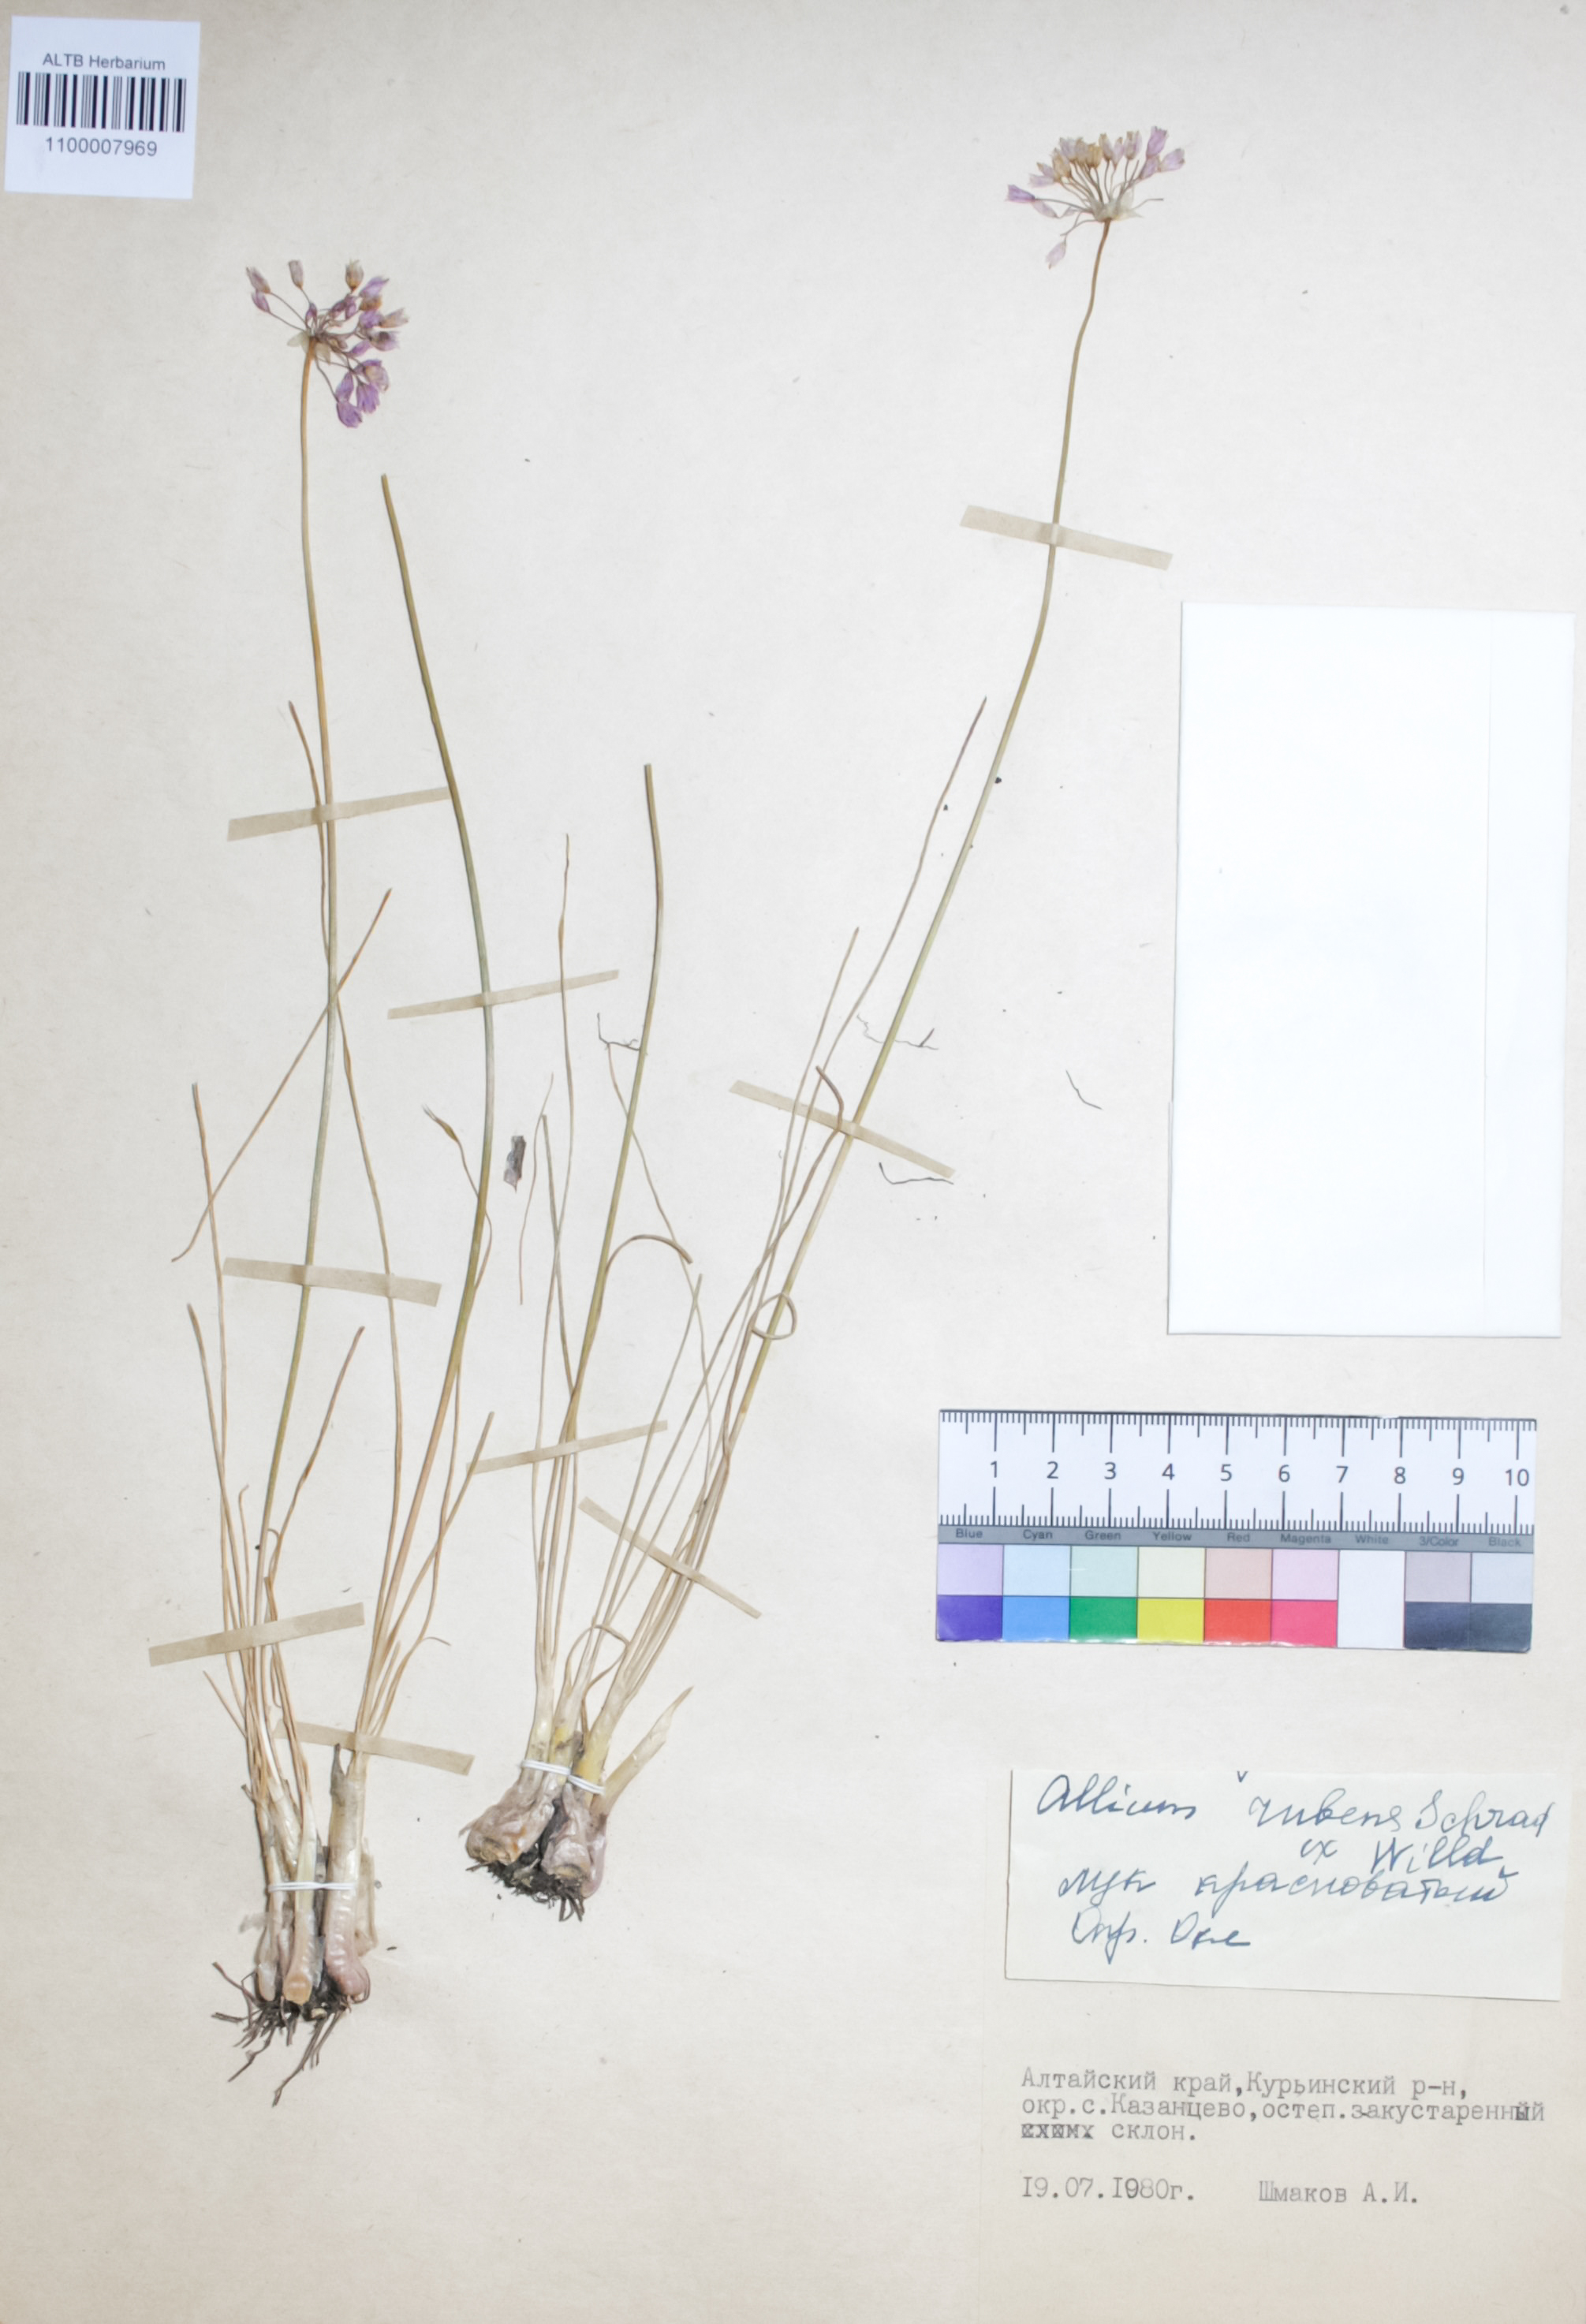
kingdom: Plantae
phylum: Tracheophyta
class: Liliopsida
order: Asparagales
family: Amaryllidaceae
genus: Allium
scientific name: Allium rubens
